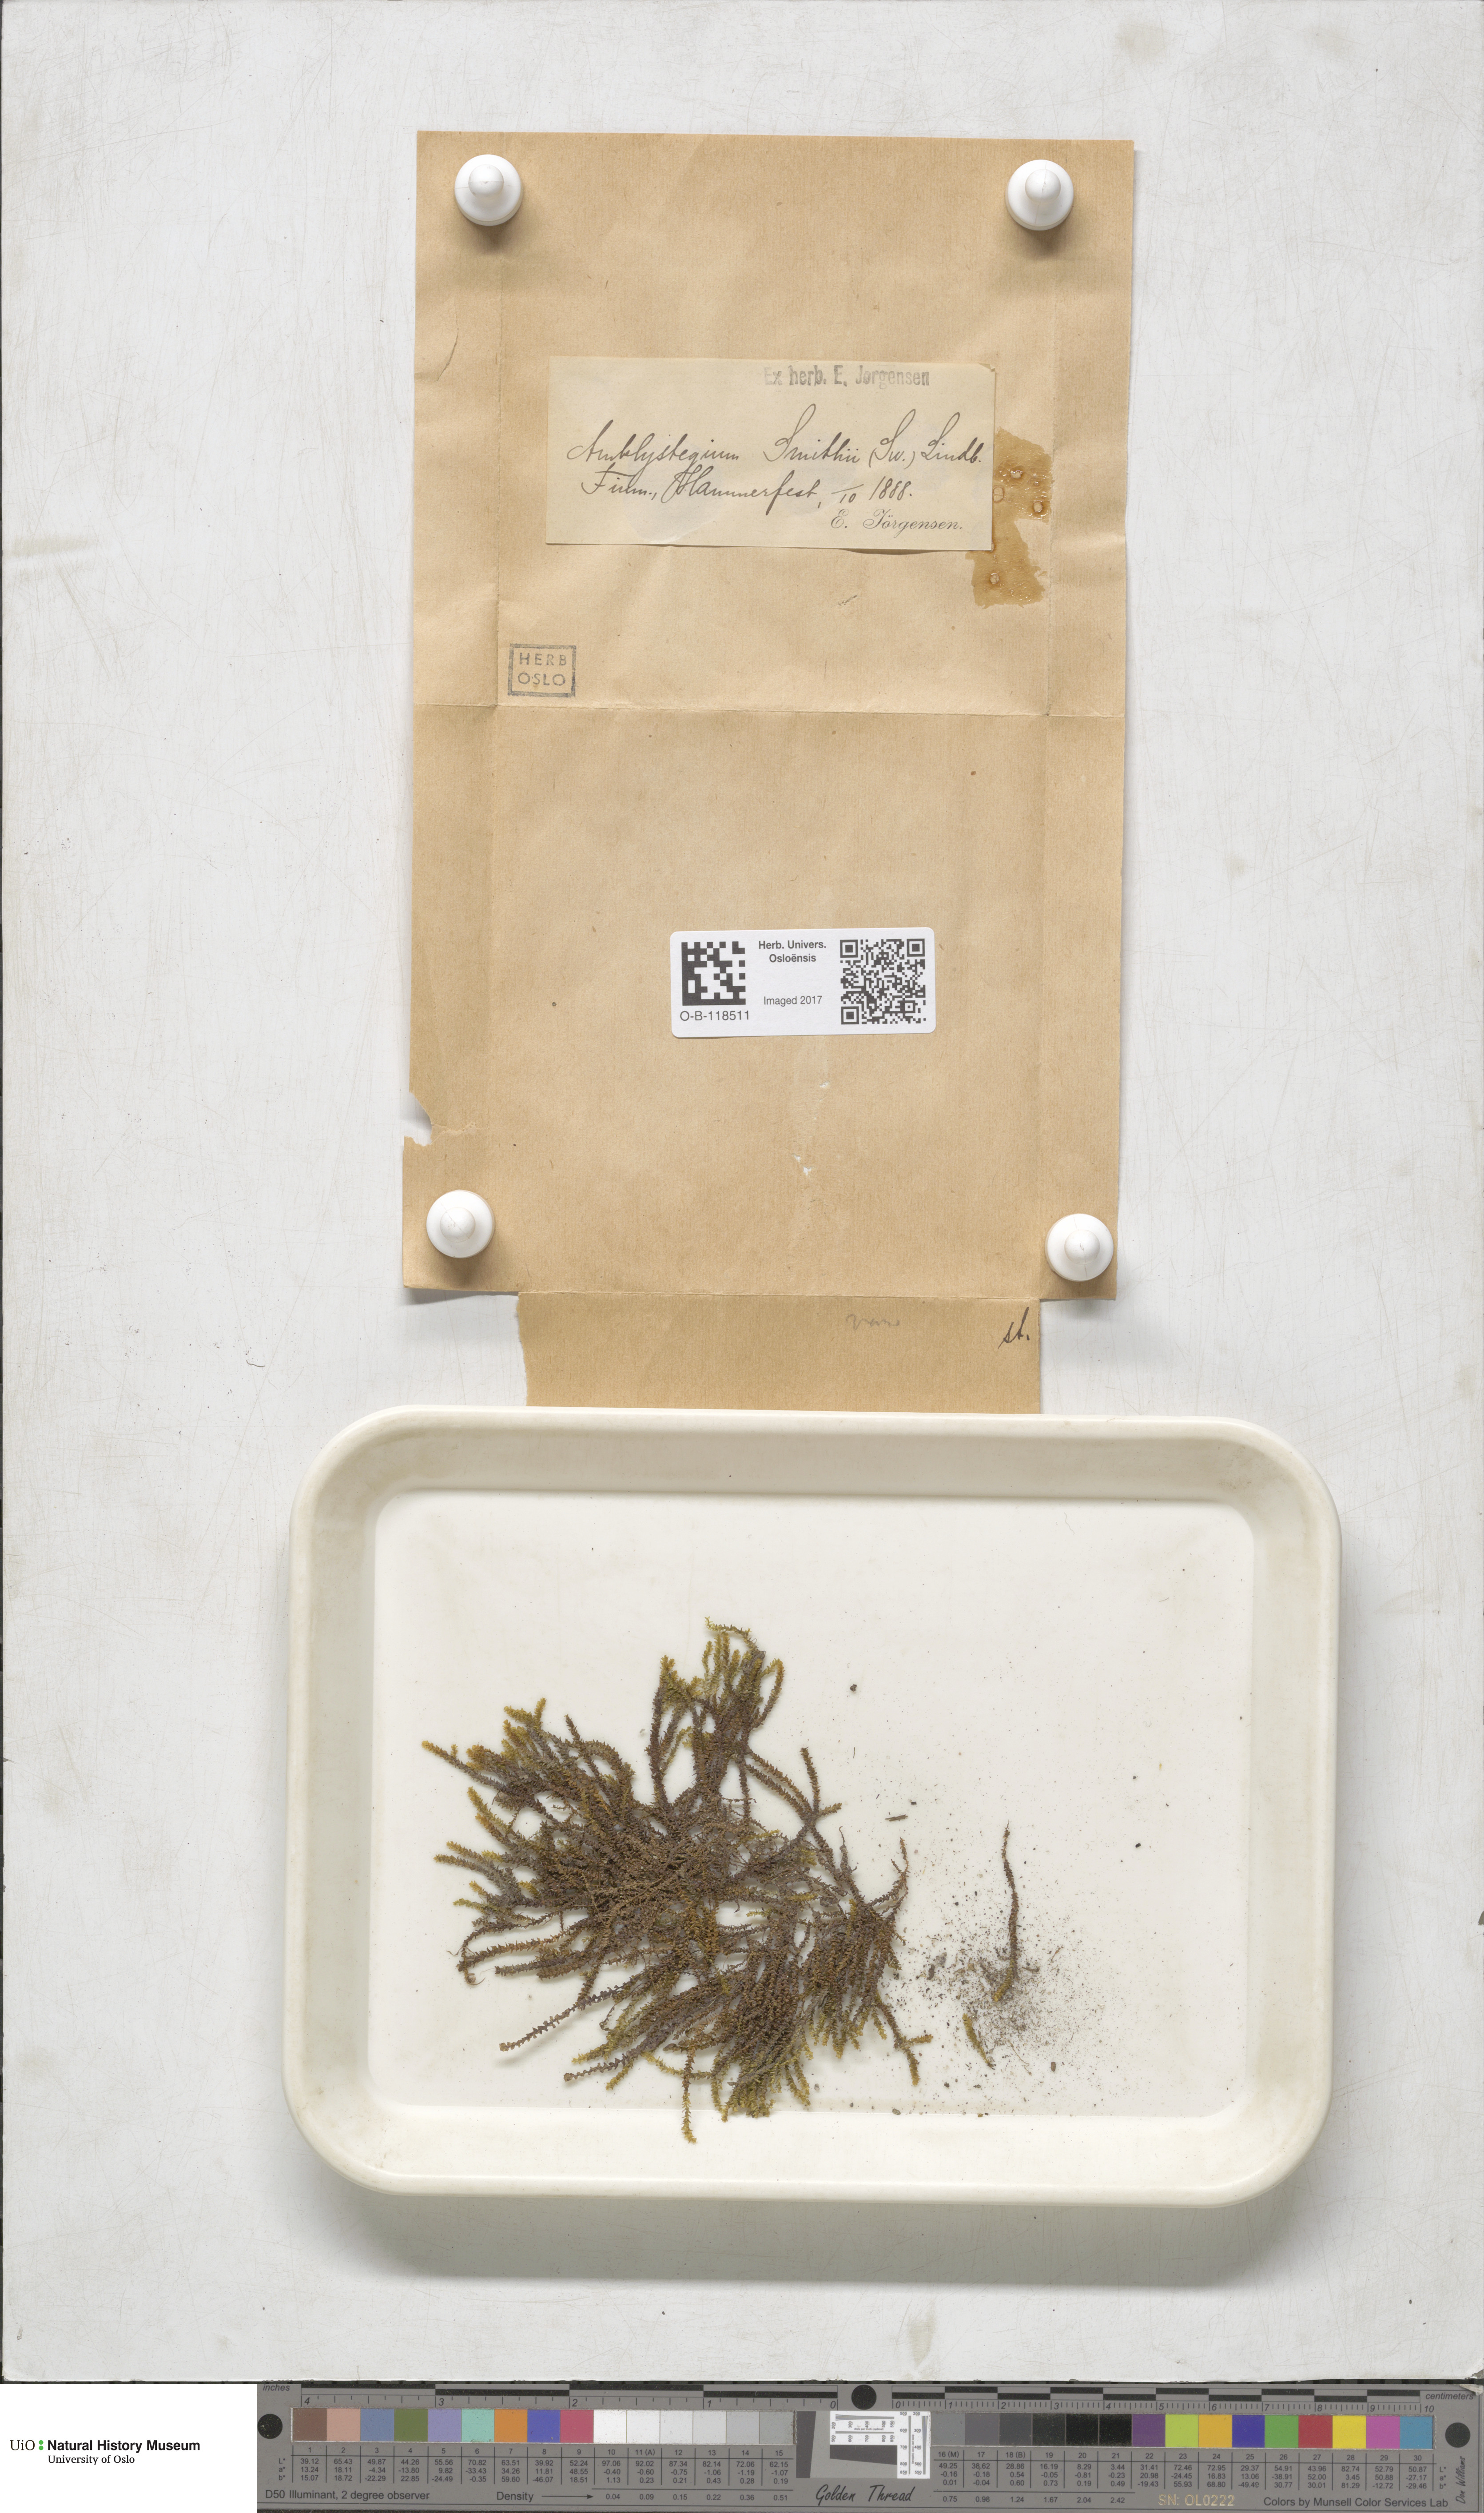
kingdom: Plantae
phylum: Bryophyta
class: Bryopsida
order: Hypnales
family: Amblystegiaceae
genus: Platyhypnum
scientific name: Platyhypnum smithii
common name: Arctic brook-moss
